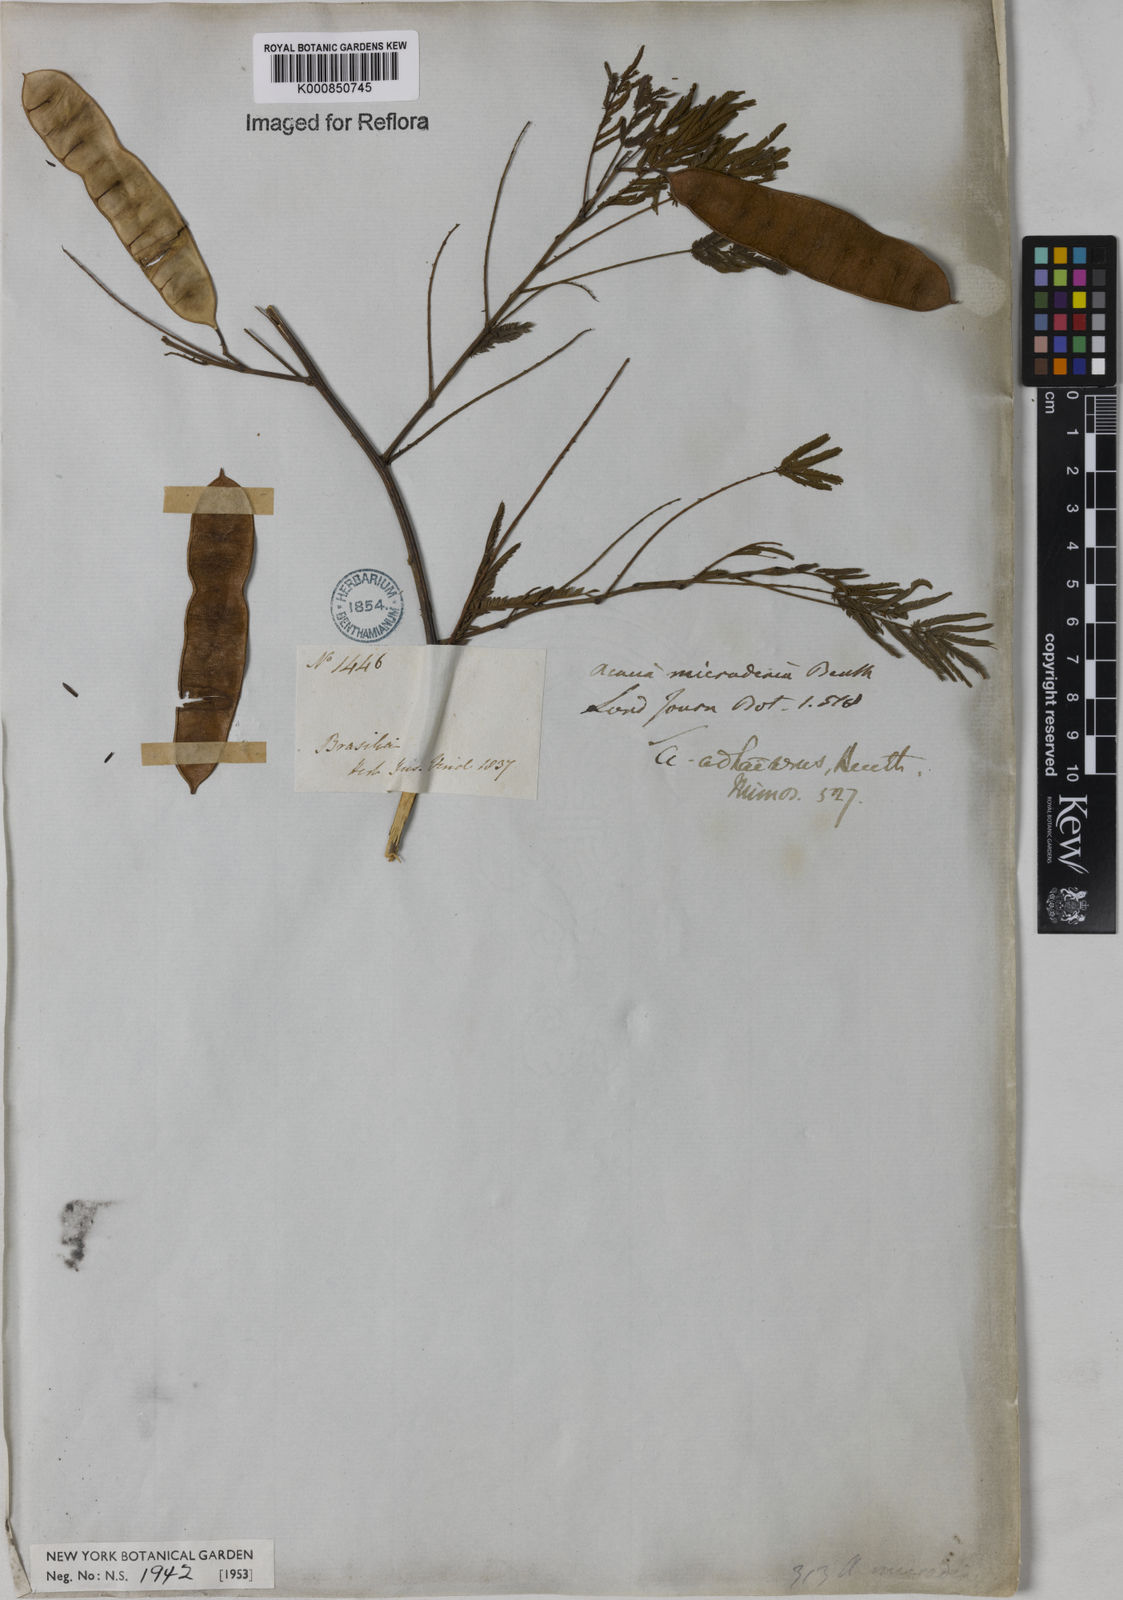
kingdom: Plantae
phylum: Tracheophyta
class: Magnoliopsida
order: Fabales
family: Fabaceae
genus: Senegalia
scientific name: Senegalia martiusiana
